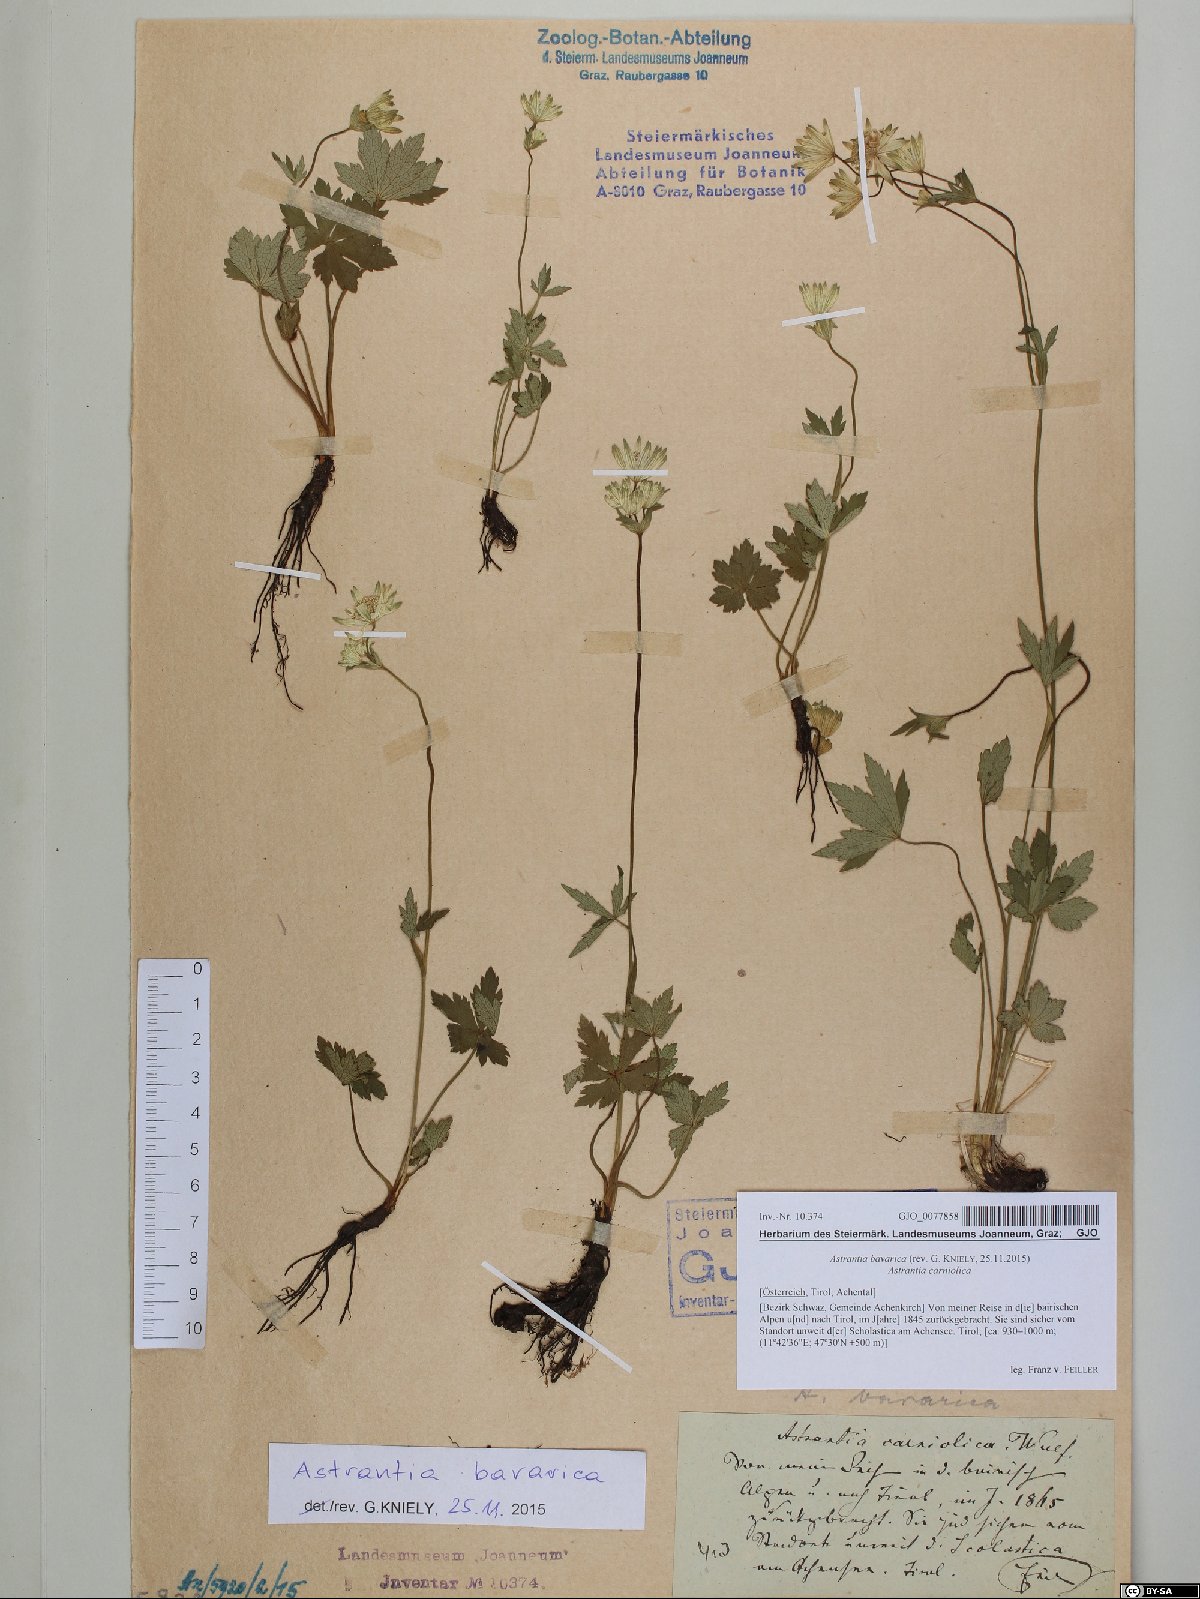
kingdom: Plantae
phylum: Tracheophyta
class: Magnoliopsida
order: Apiales
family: Apiaceae
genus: Astrantia
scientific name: Astrantia bavarica
